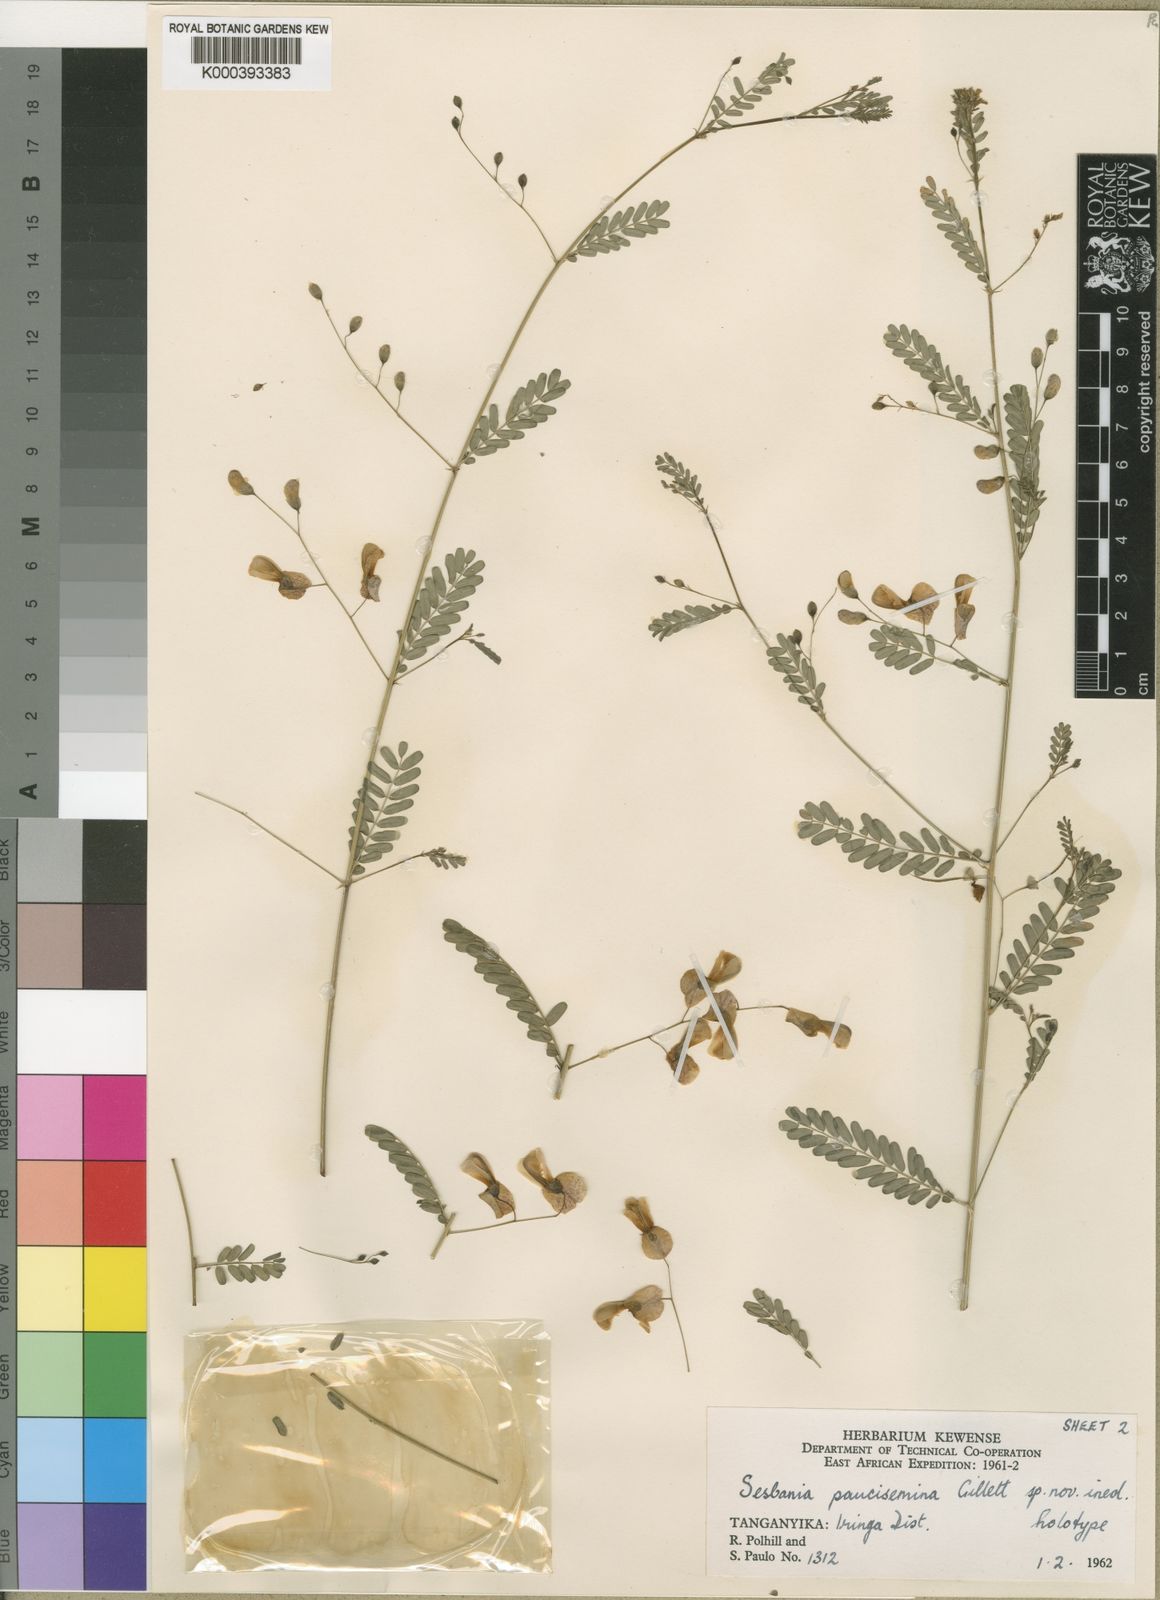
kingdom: Plantae
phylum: Tracheophyta
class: Magnoliopsida
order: Fabales
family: Fabaceae
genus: Sesbania
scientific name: Sesbania paucisemina
